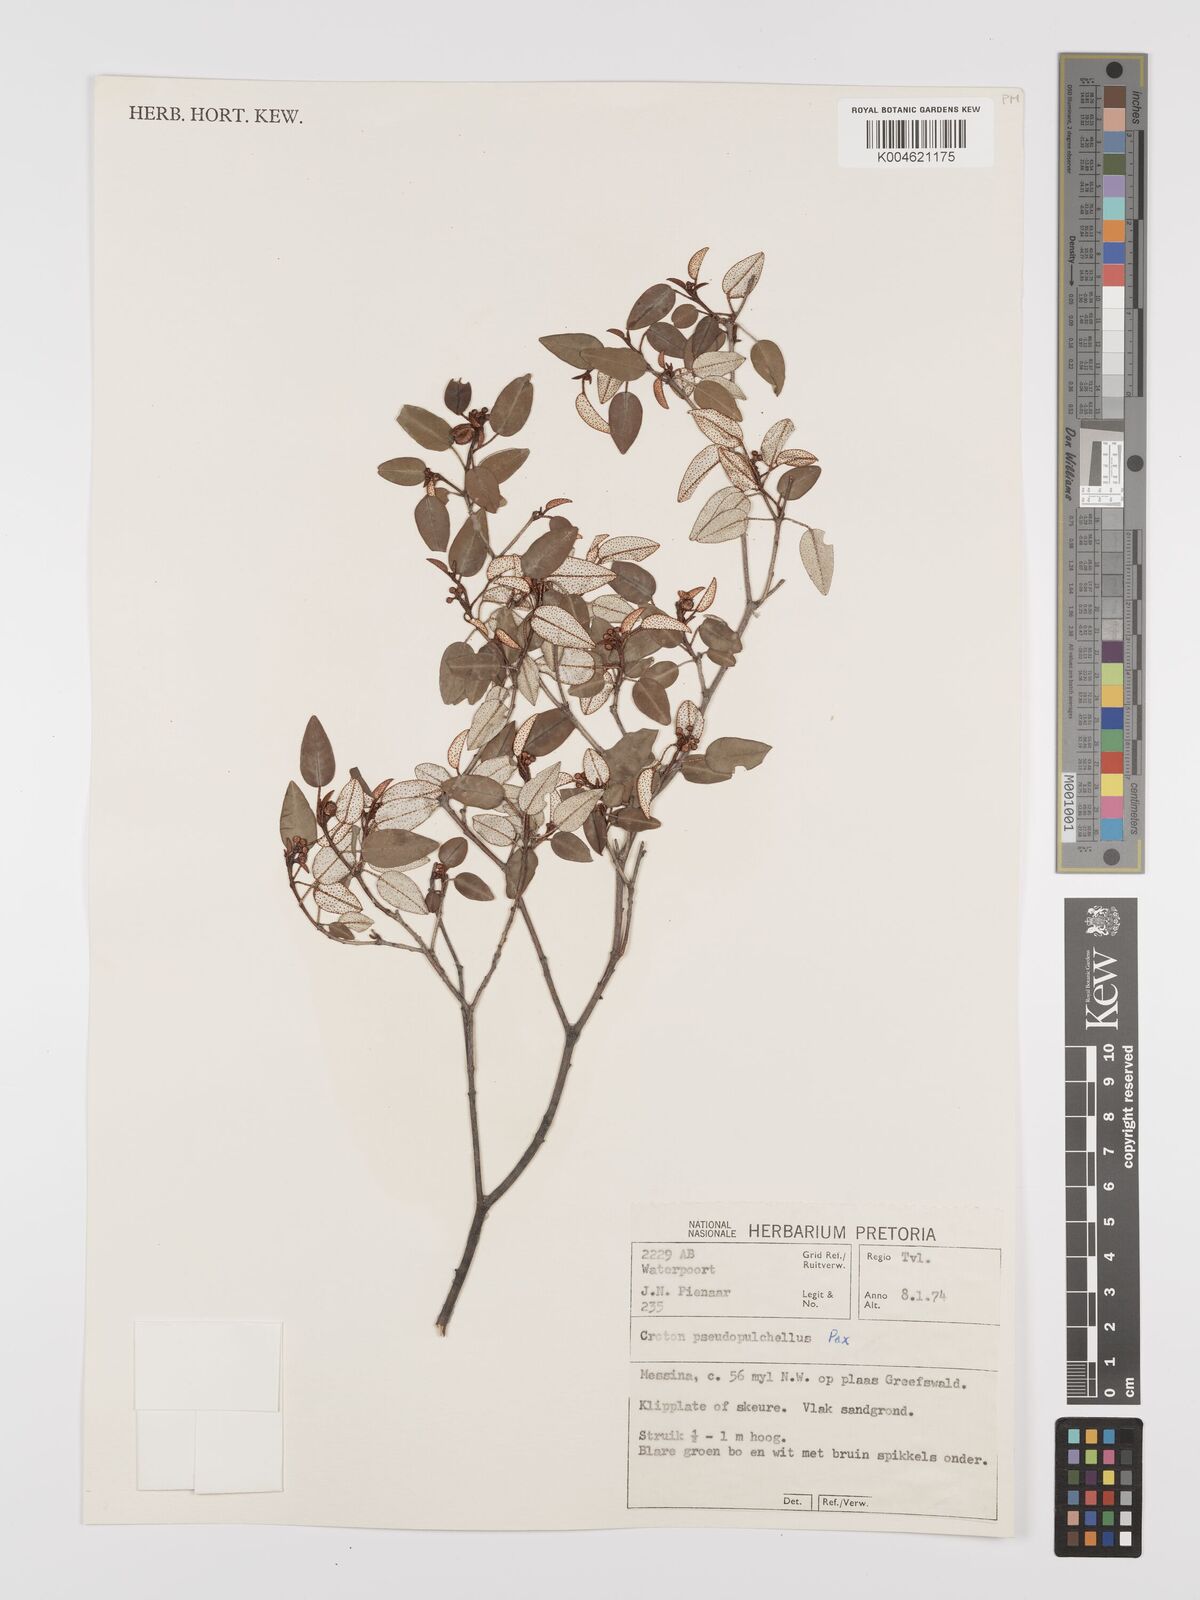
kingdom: Plantae
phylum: Tracheophyta
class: Magnoliopsida
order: Malpighiales
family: Euphorbiaceae
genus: Croton
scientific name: Croton pseudopulchellus
